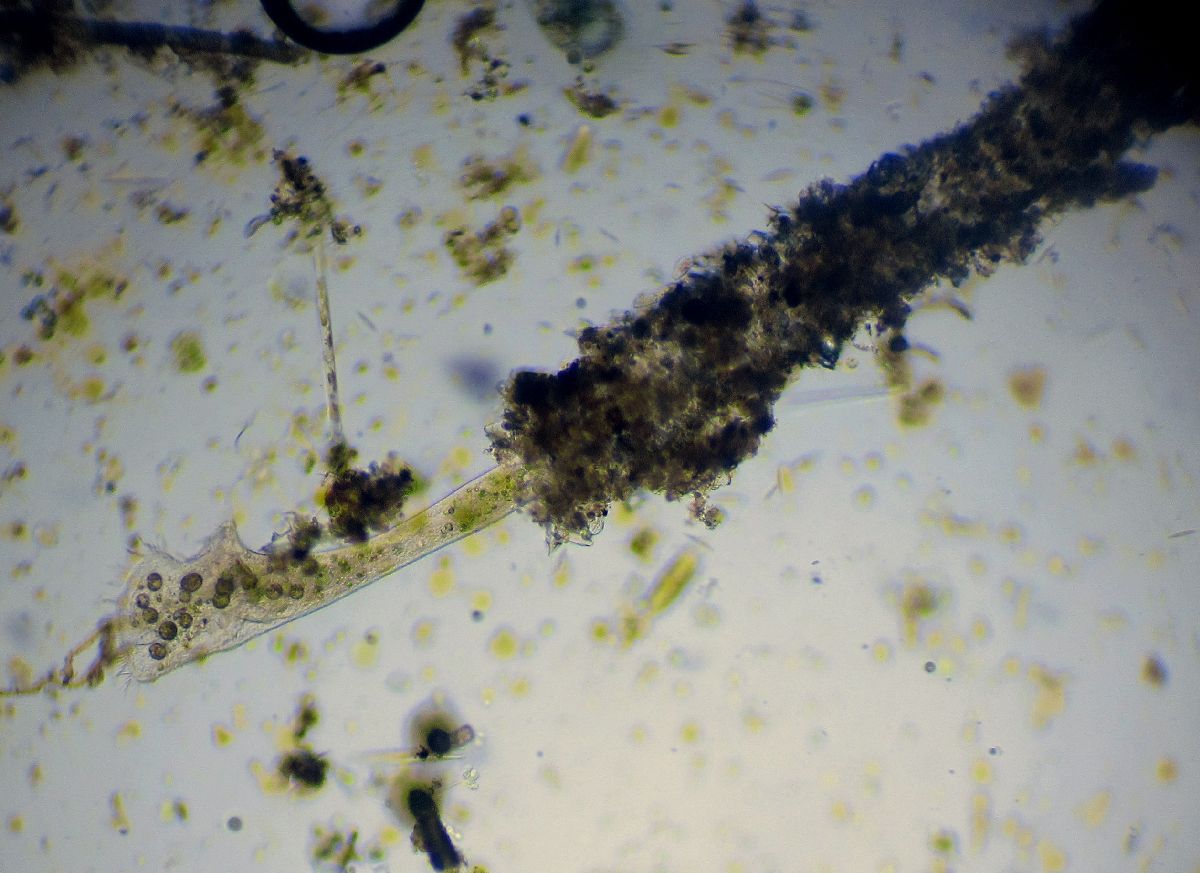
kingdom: Chromista
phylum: Ciliophora
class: Heterotrichea
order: Heterotrichida
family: Stentoridae
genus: Stentor
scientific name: Stentor roeseli
